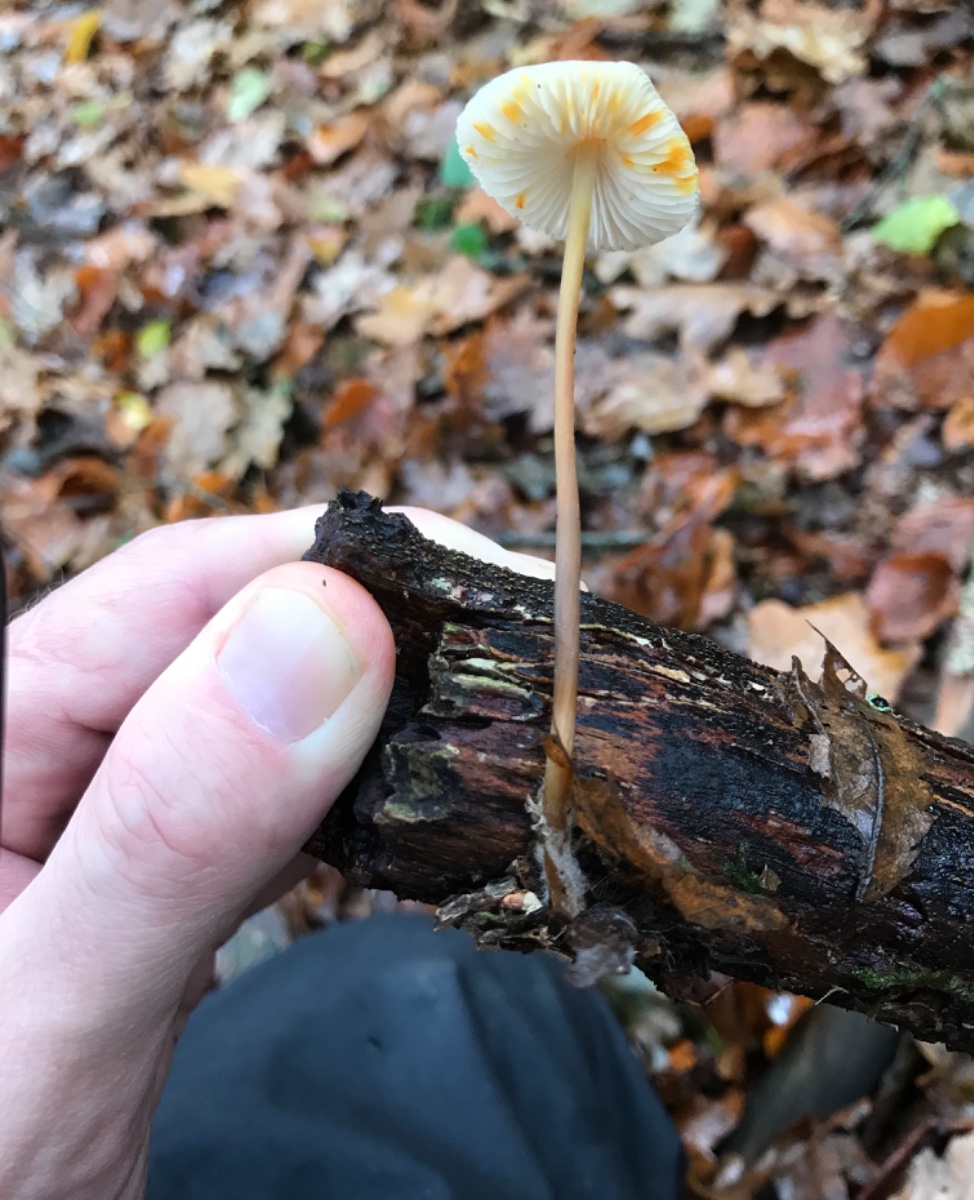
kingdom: Fungi
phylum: Basidiomycota
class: Agaricomycetes
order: Agaricales
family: Mycenaceae
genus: Mycena
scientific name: Mycena crocata
